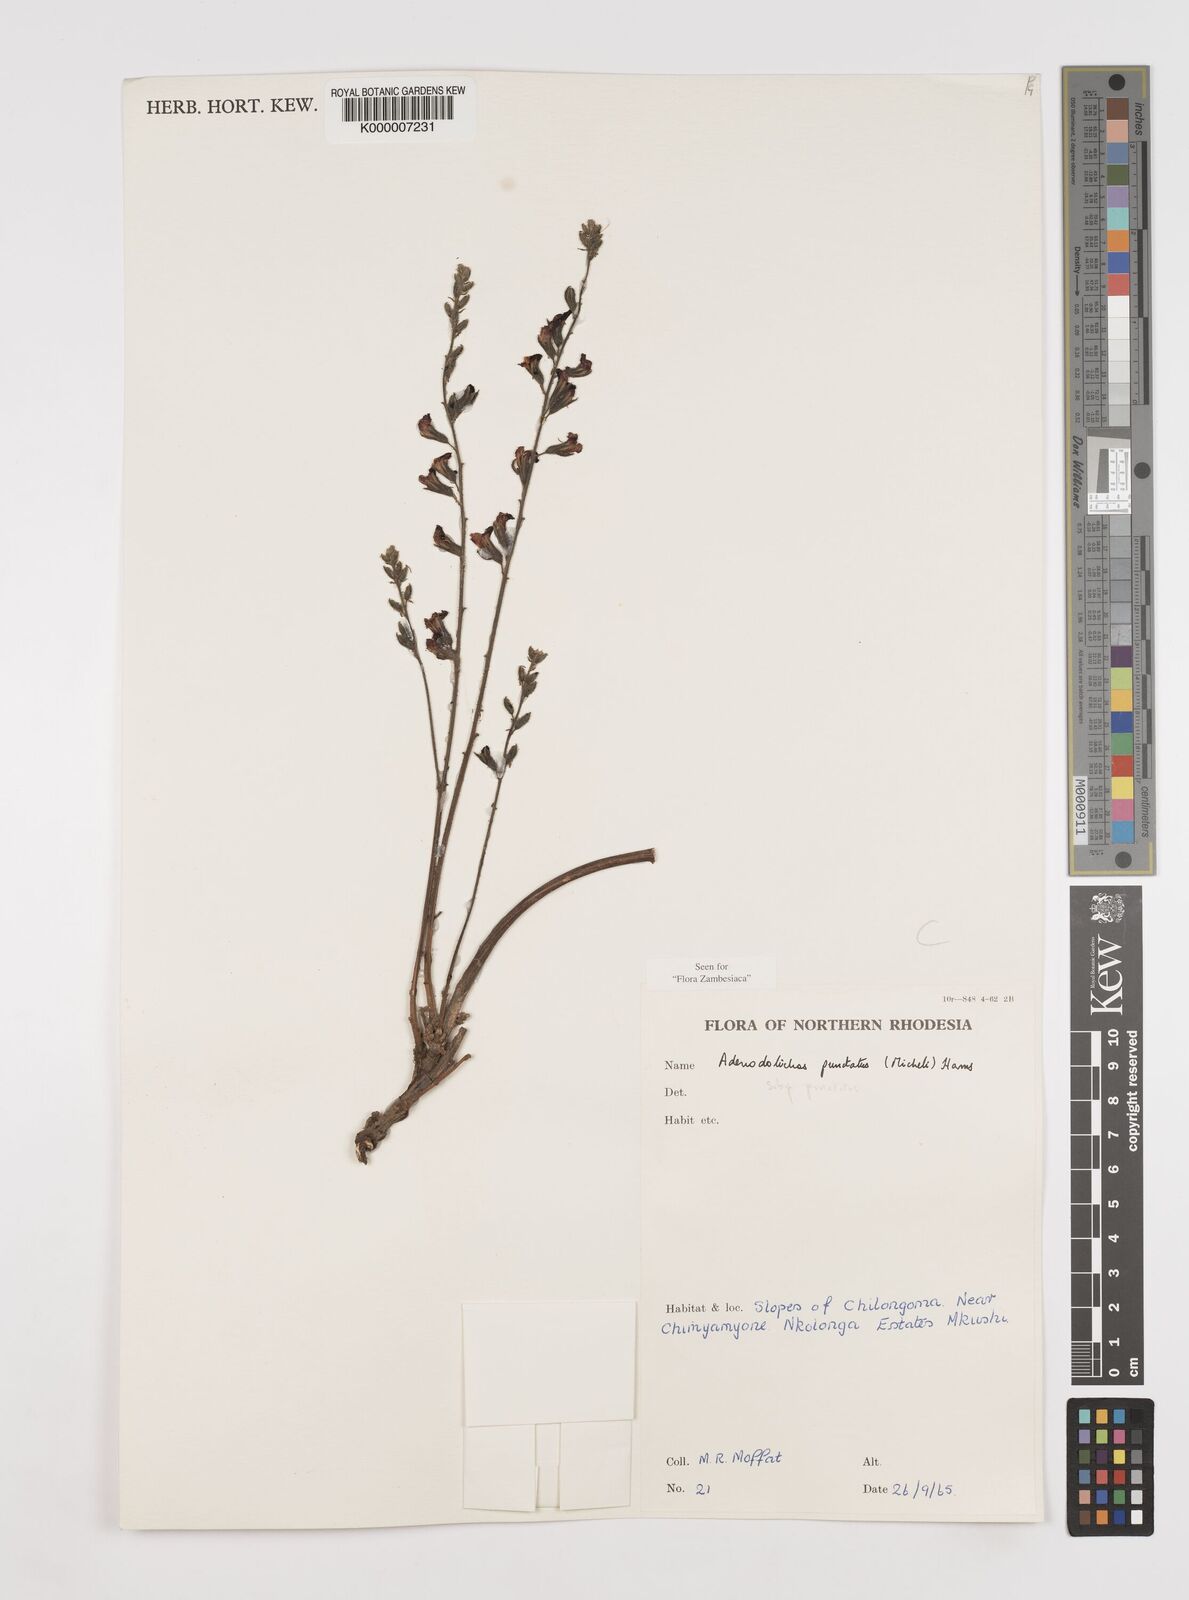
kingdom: Plantae
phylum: Tracheophyta
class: Magnoliopsida
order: Fabales
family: Fabaceae
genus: Adenodolichos
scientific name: Adenodolichos punctatus
